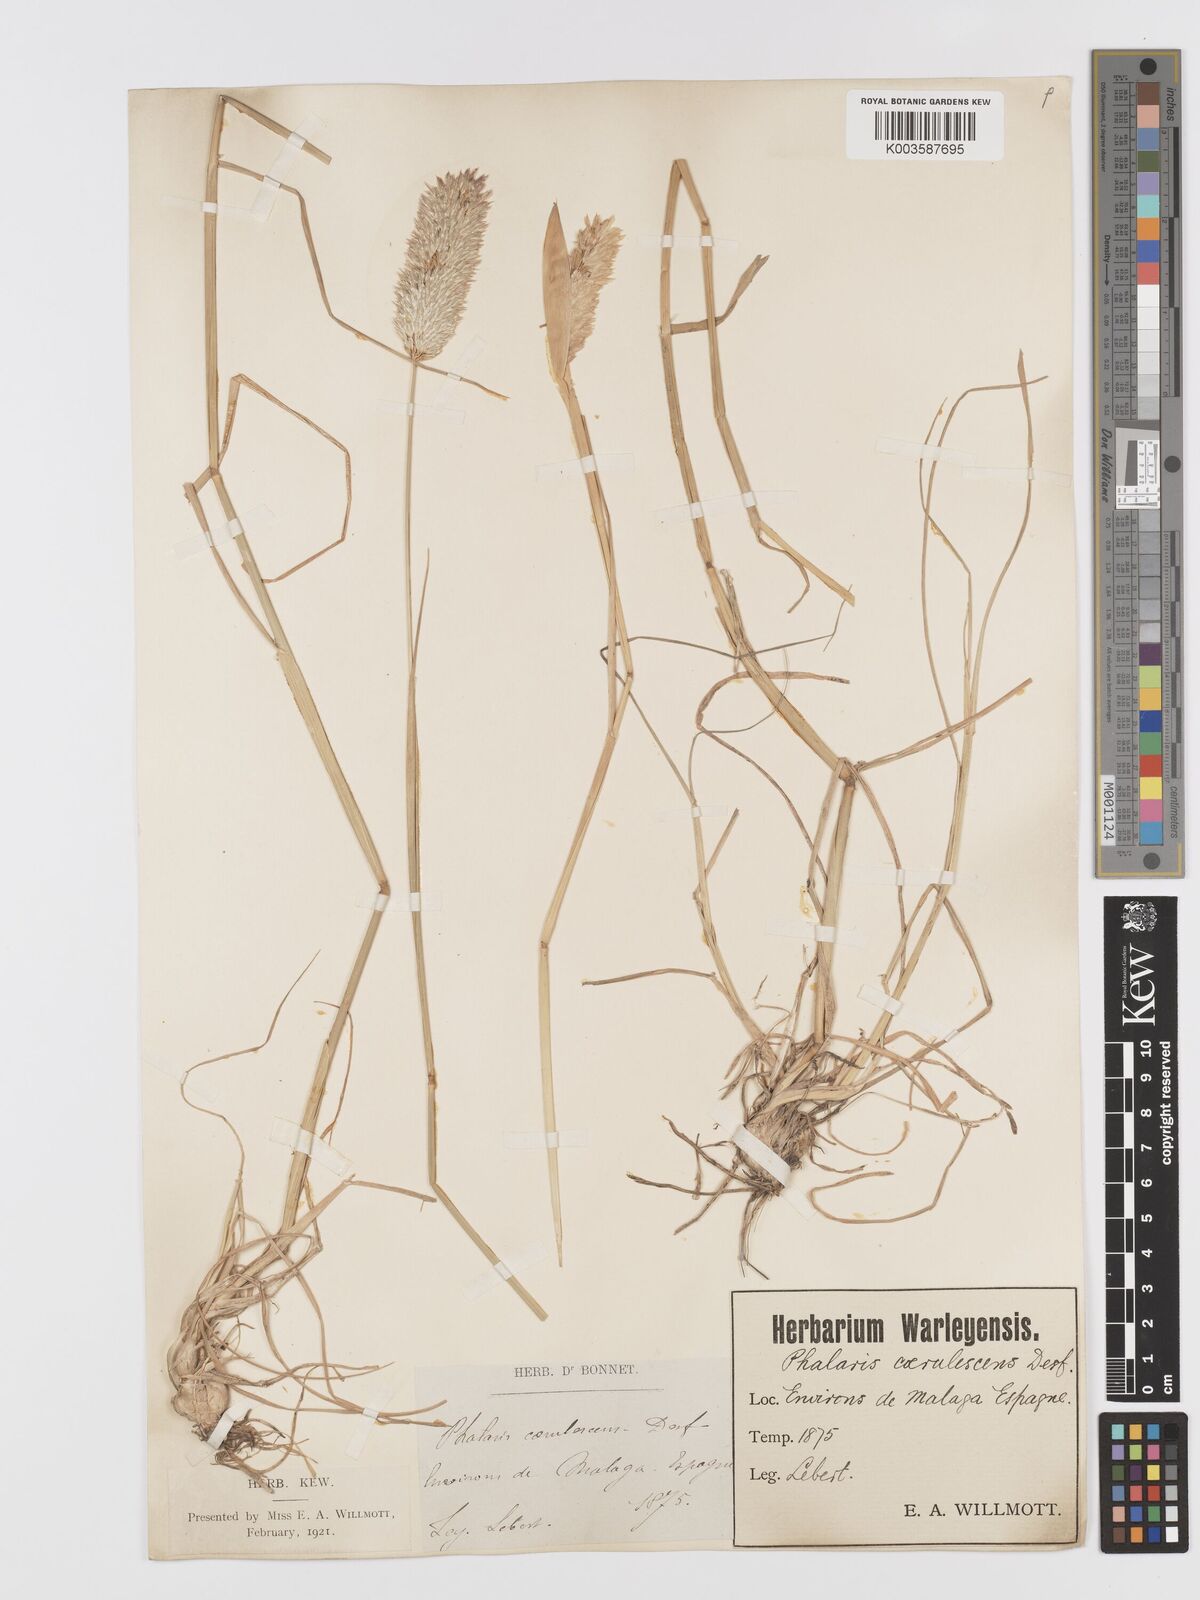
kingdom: Plantae
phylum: Tracheophyta
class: Liliopsida
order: Poales
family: Poaceae
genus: Phalaris
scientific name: Phalaris coerulescens
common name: Sunolgrass
